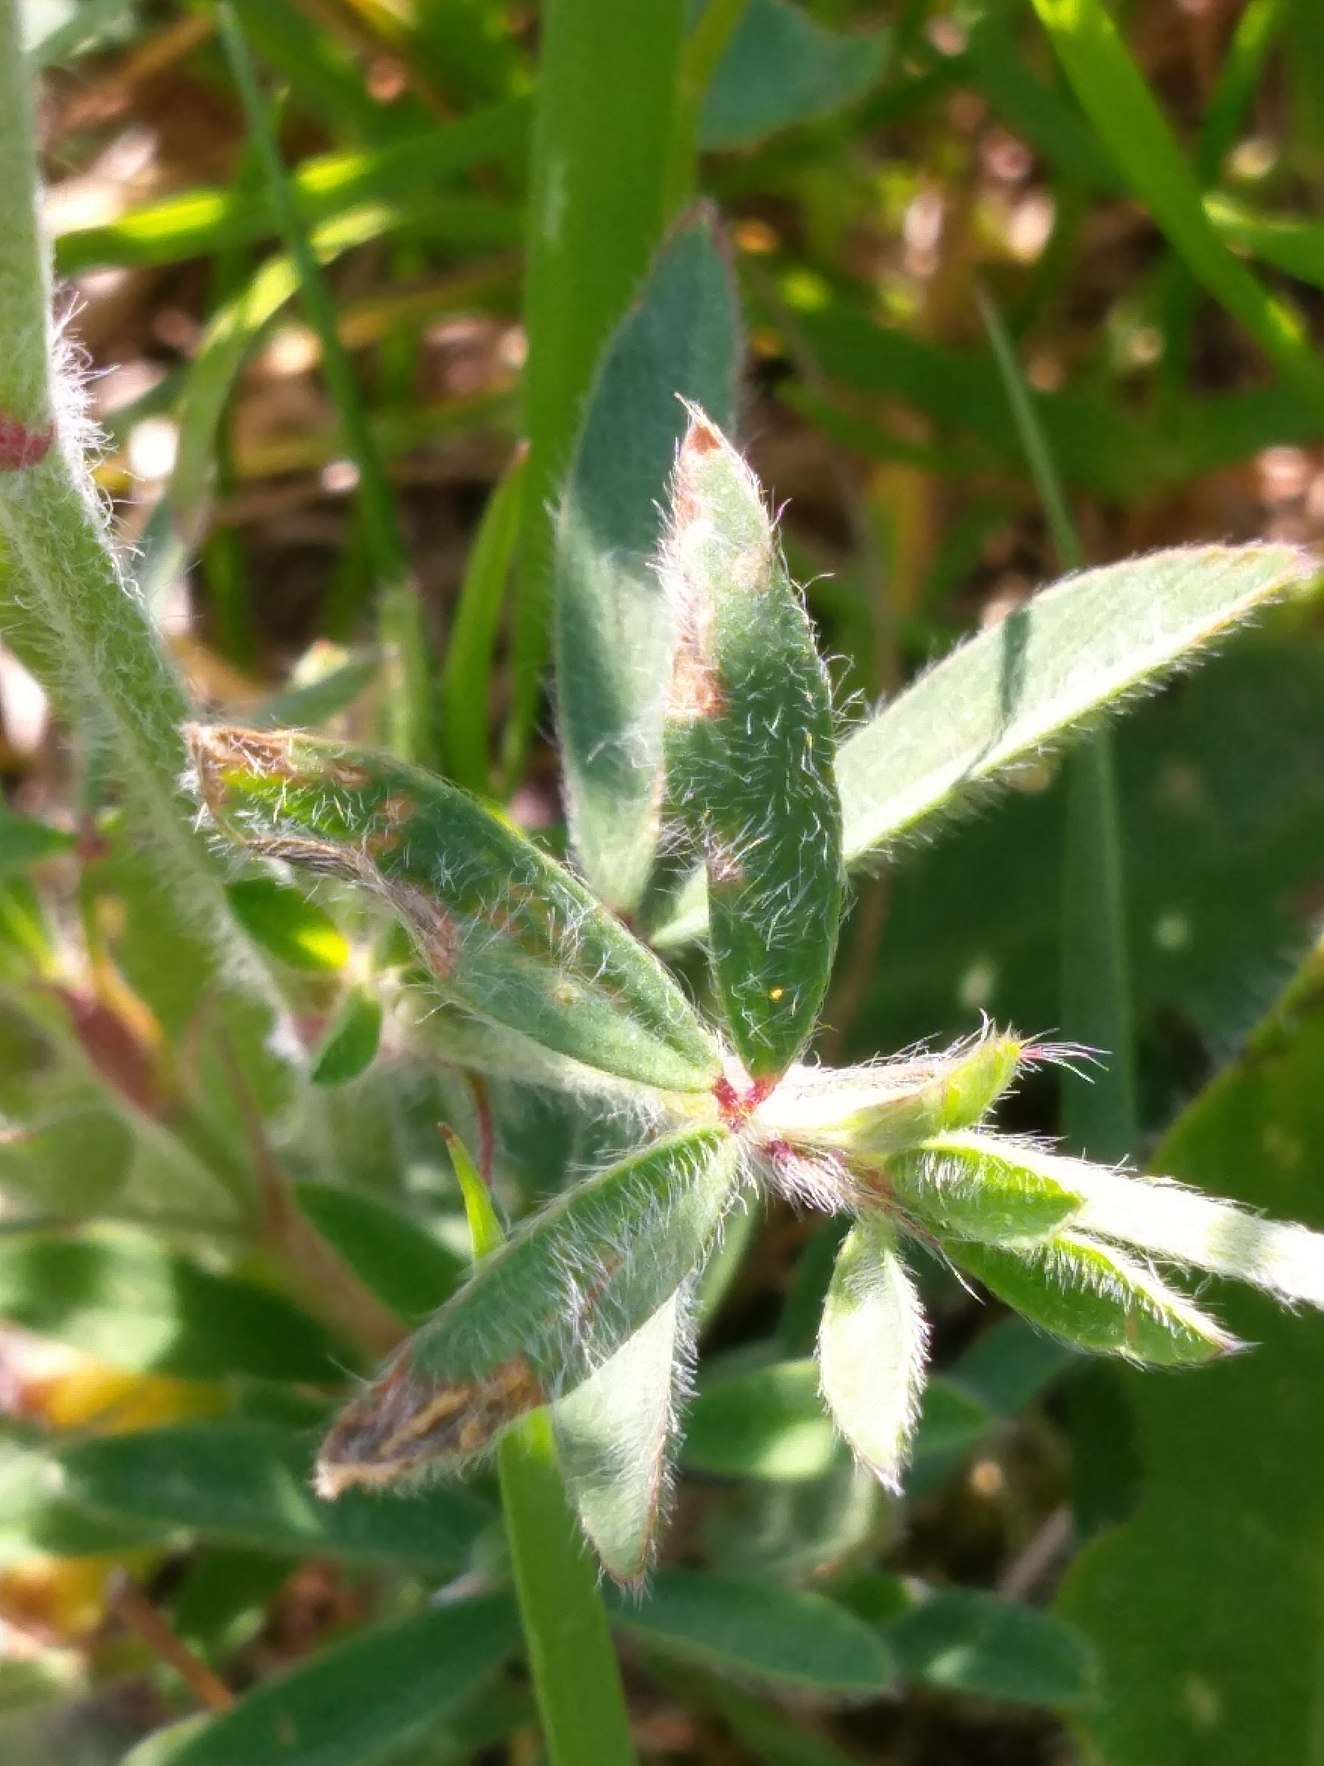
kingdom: Plantae
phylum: Tracheophyta
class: Magnoliopsida
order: Fabales
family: Fabaceae
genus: Trifolium
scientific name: Trifolium arvense
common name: Hare-kløver
